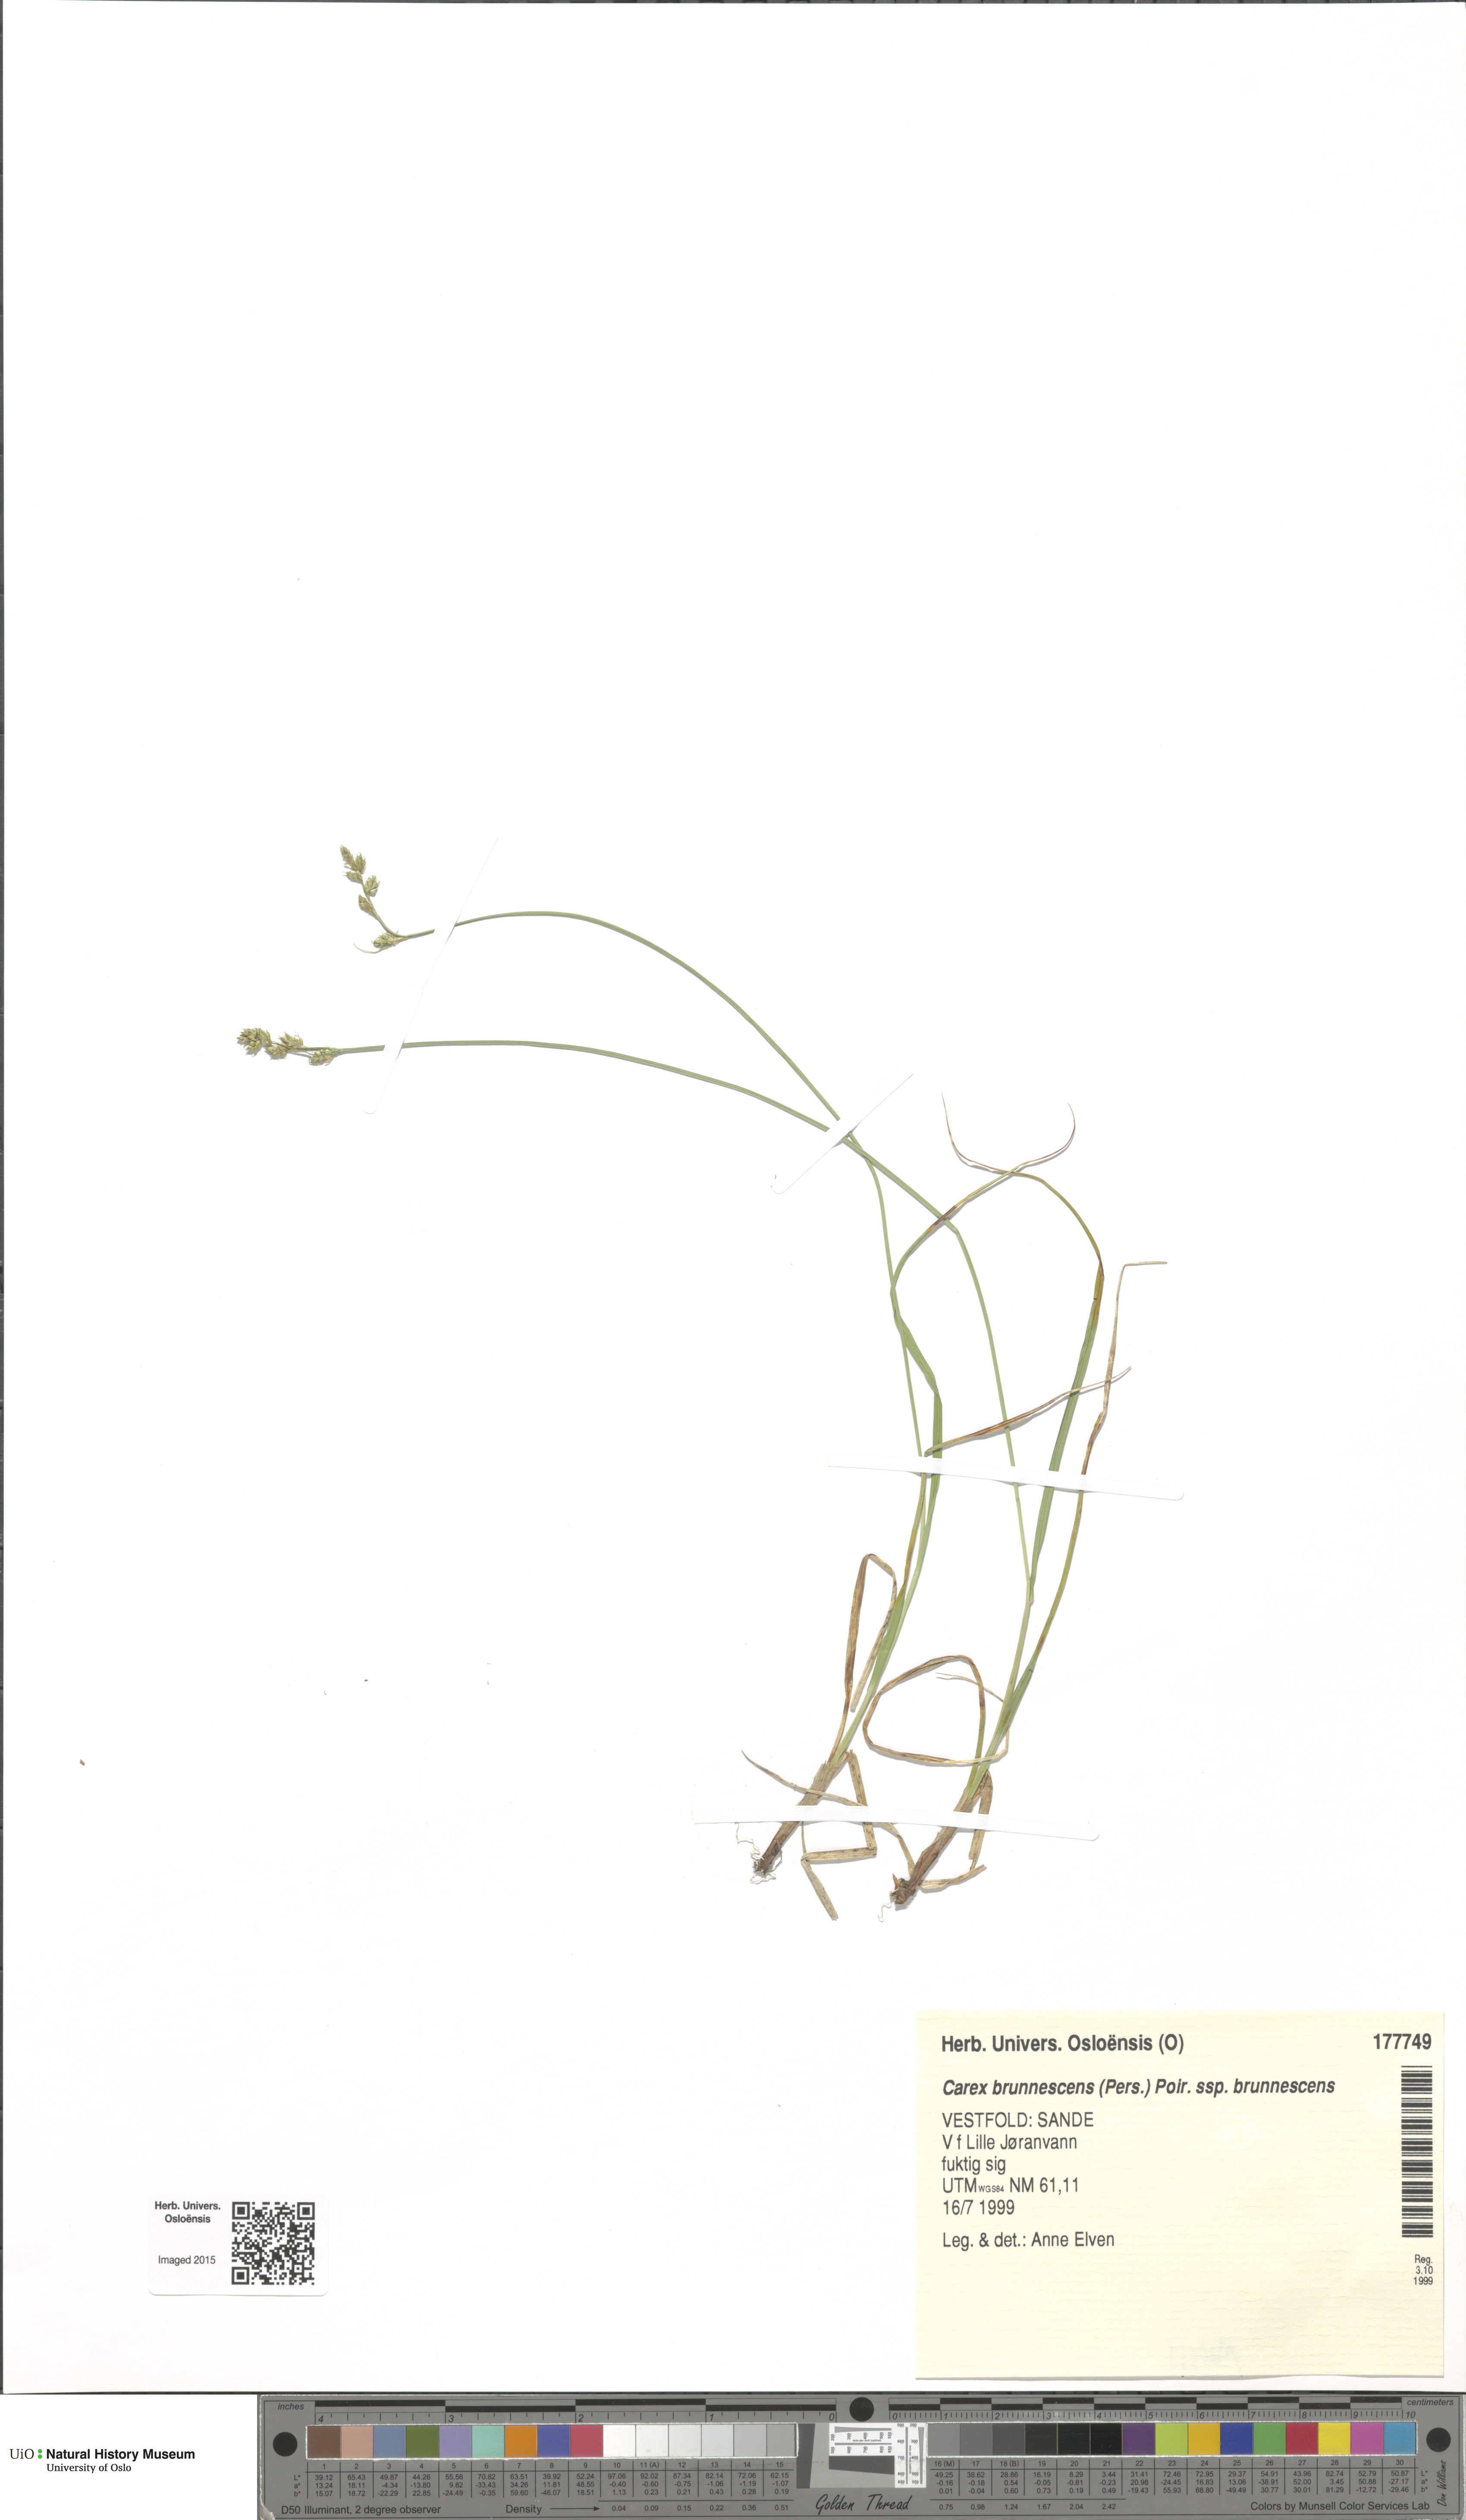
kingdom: Plantae
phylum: Tracheophyta
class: Liliopsida
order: Poales
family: Cyperaceae
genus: Carex
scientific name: Carex brunnescens
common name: Brown sedge
